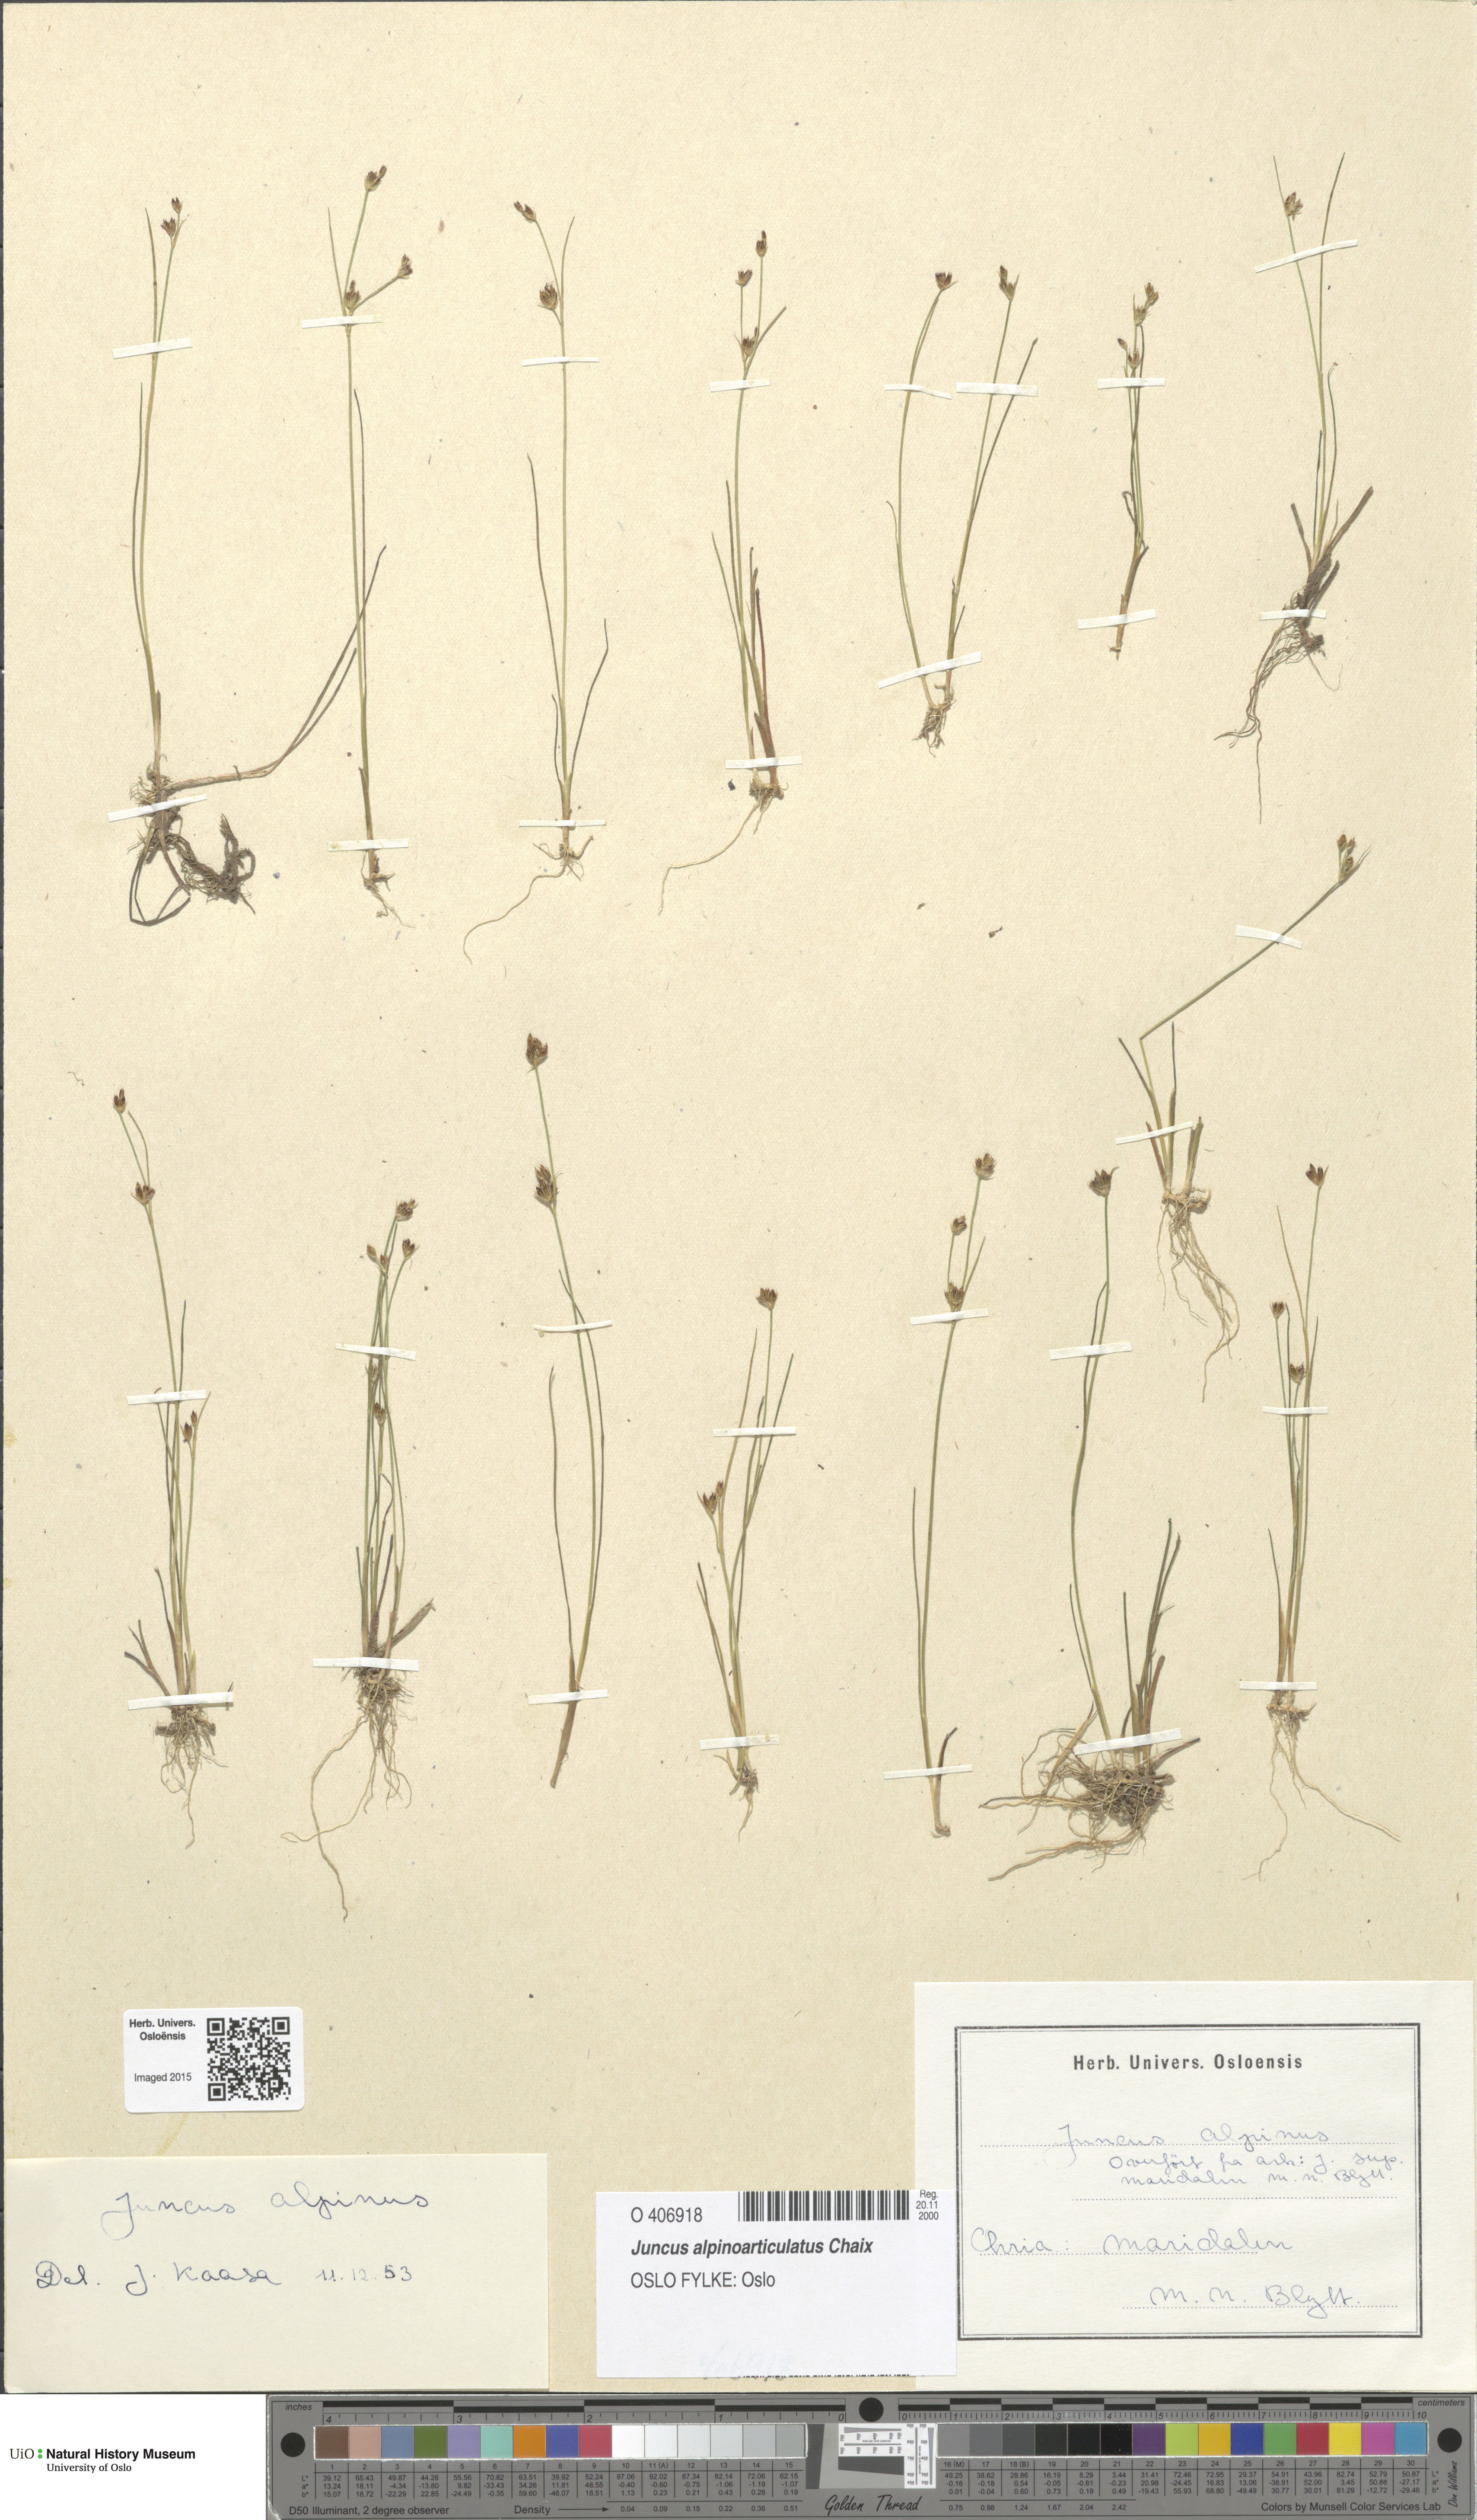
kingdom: Plantae
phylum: Tracheophyta
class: Liliopsida
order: Poales
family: Juncaceae
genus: Juncus
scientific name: Juncus alpinoarticulatus
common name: Alpine rush
